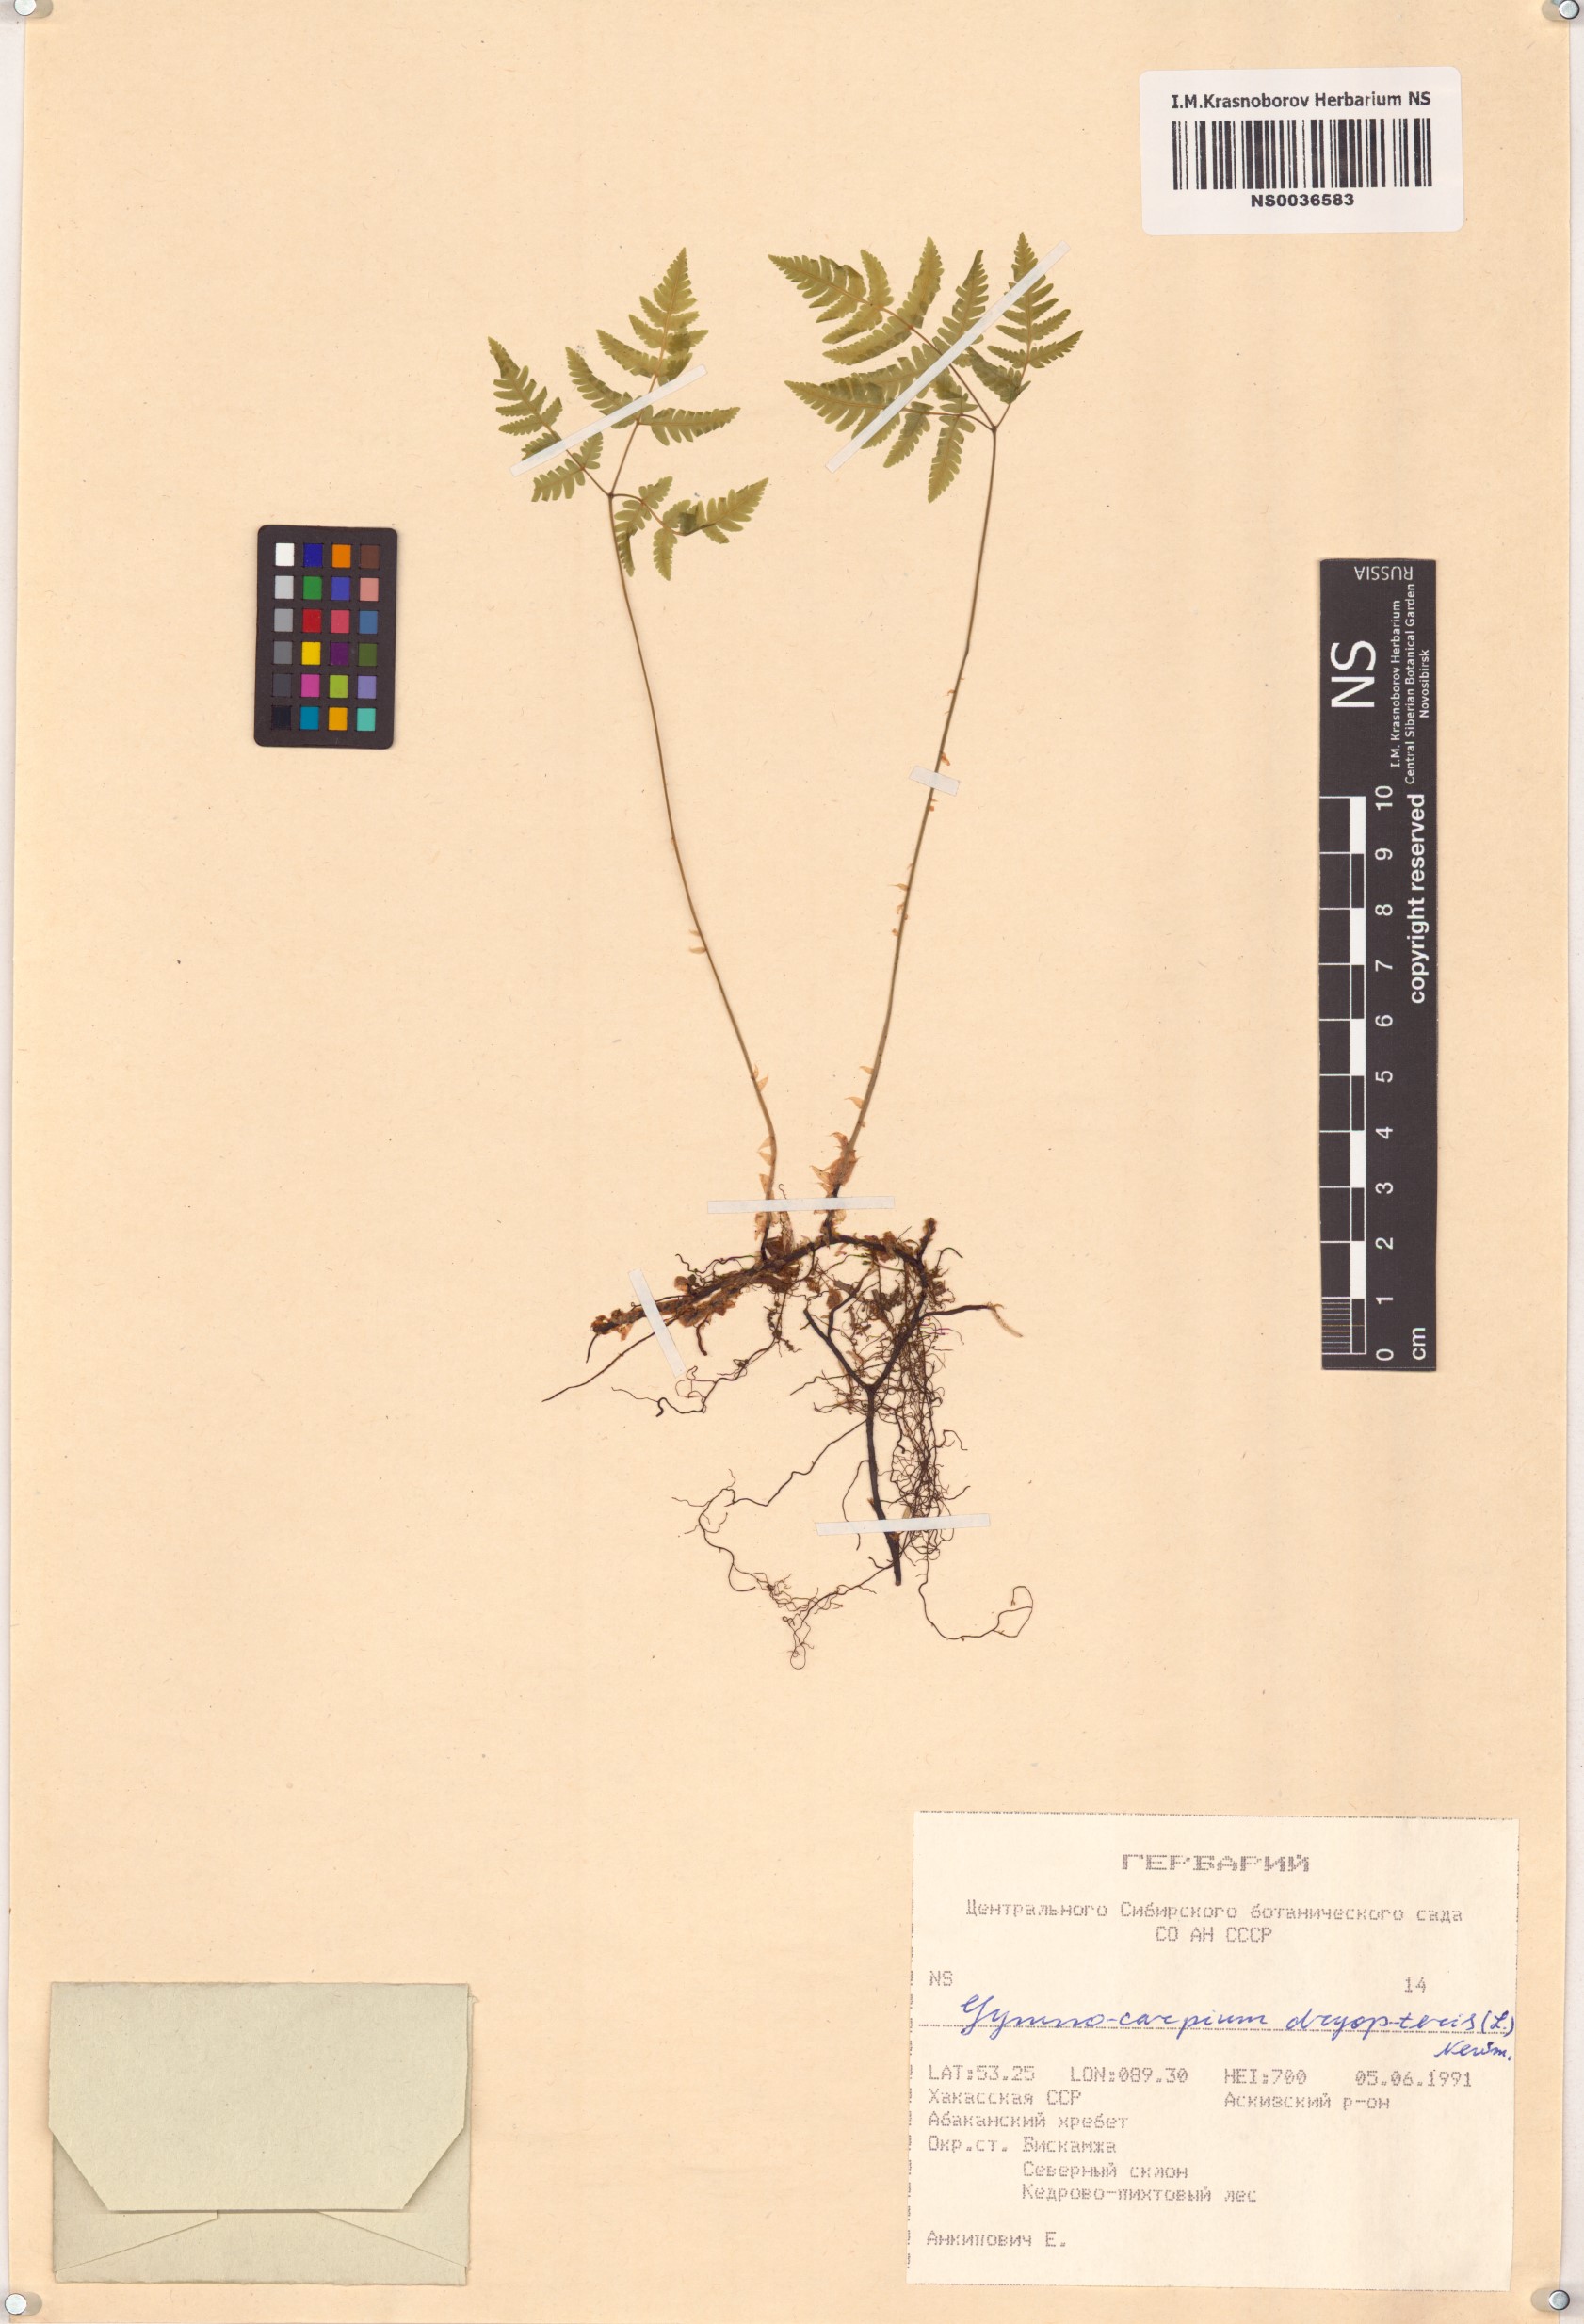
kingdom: Plantae
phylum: Tracheophyta
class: Polypodiopsida
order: Polypodiales
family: Cystopteridaceae
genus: Gymnocarpium
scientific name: Gymnocarpium dryopteris
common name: Oak fern
